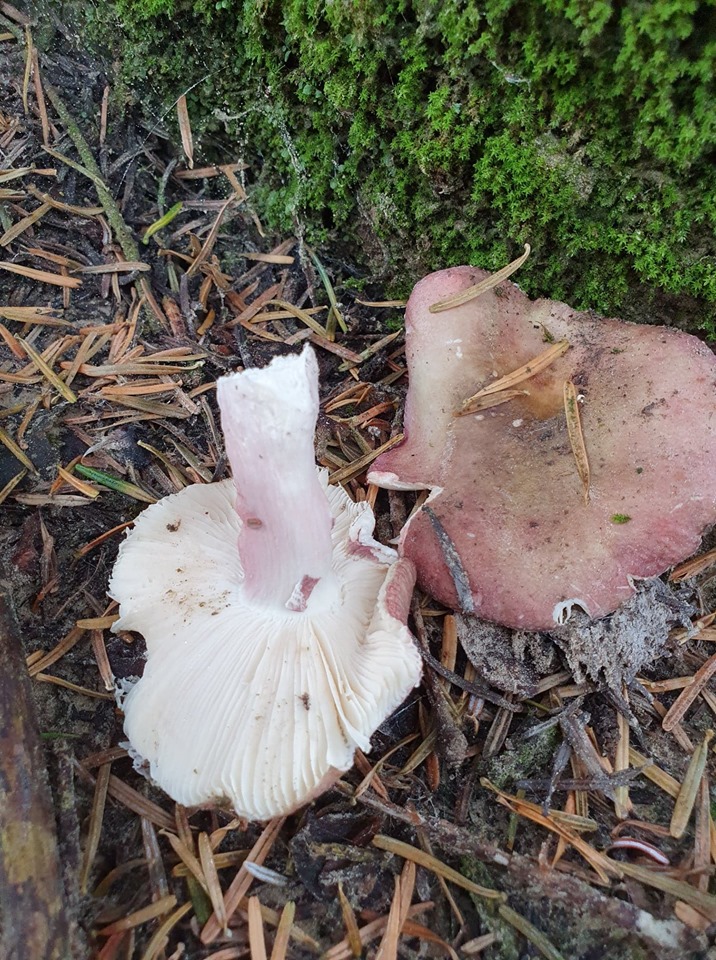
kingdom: Fungi
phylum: Basidiomycota
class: Agaricomycetes
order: Russulales
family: Russulaceae
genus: Russula
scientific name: Russula queletii
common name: Quélets skørhat
